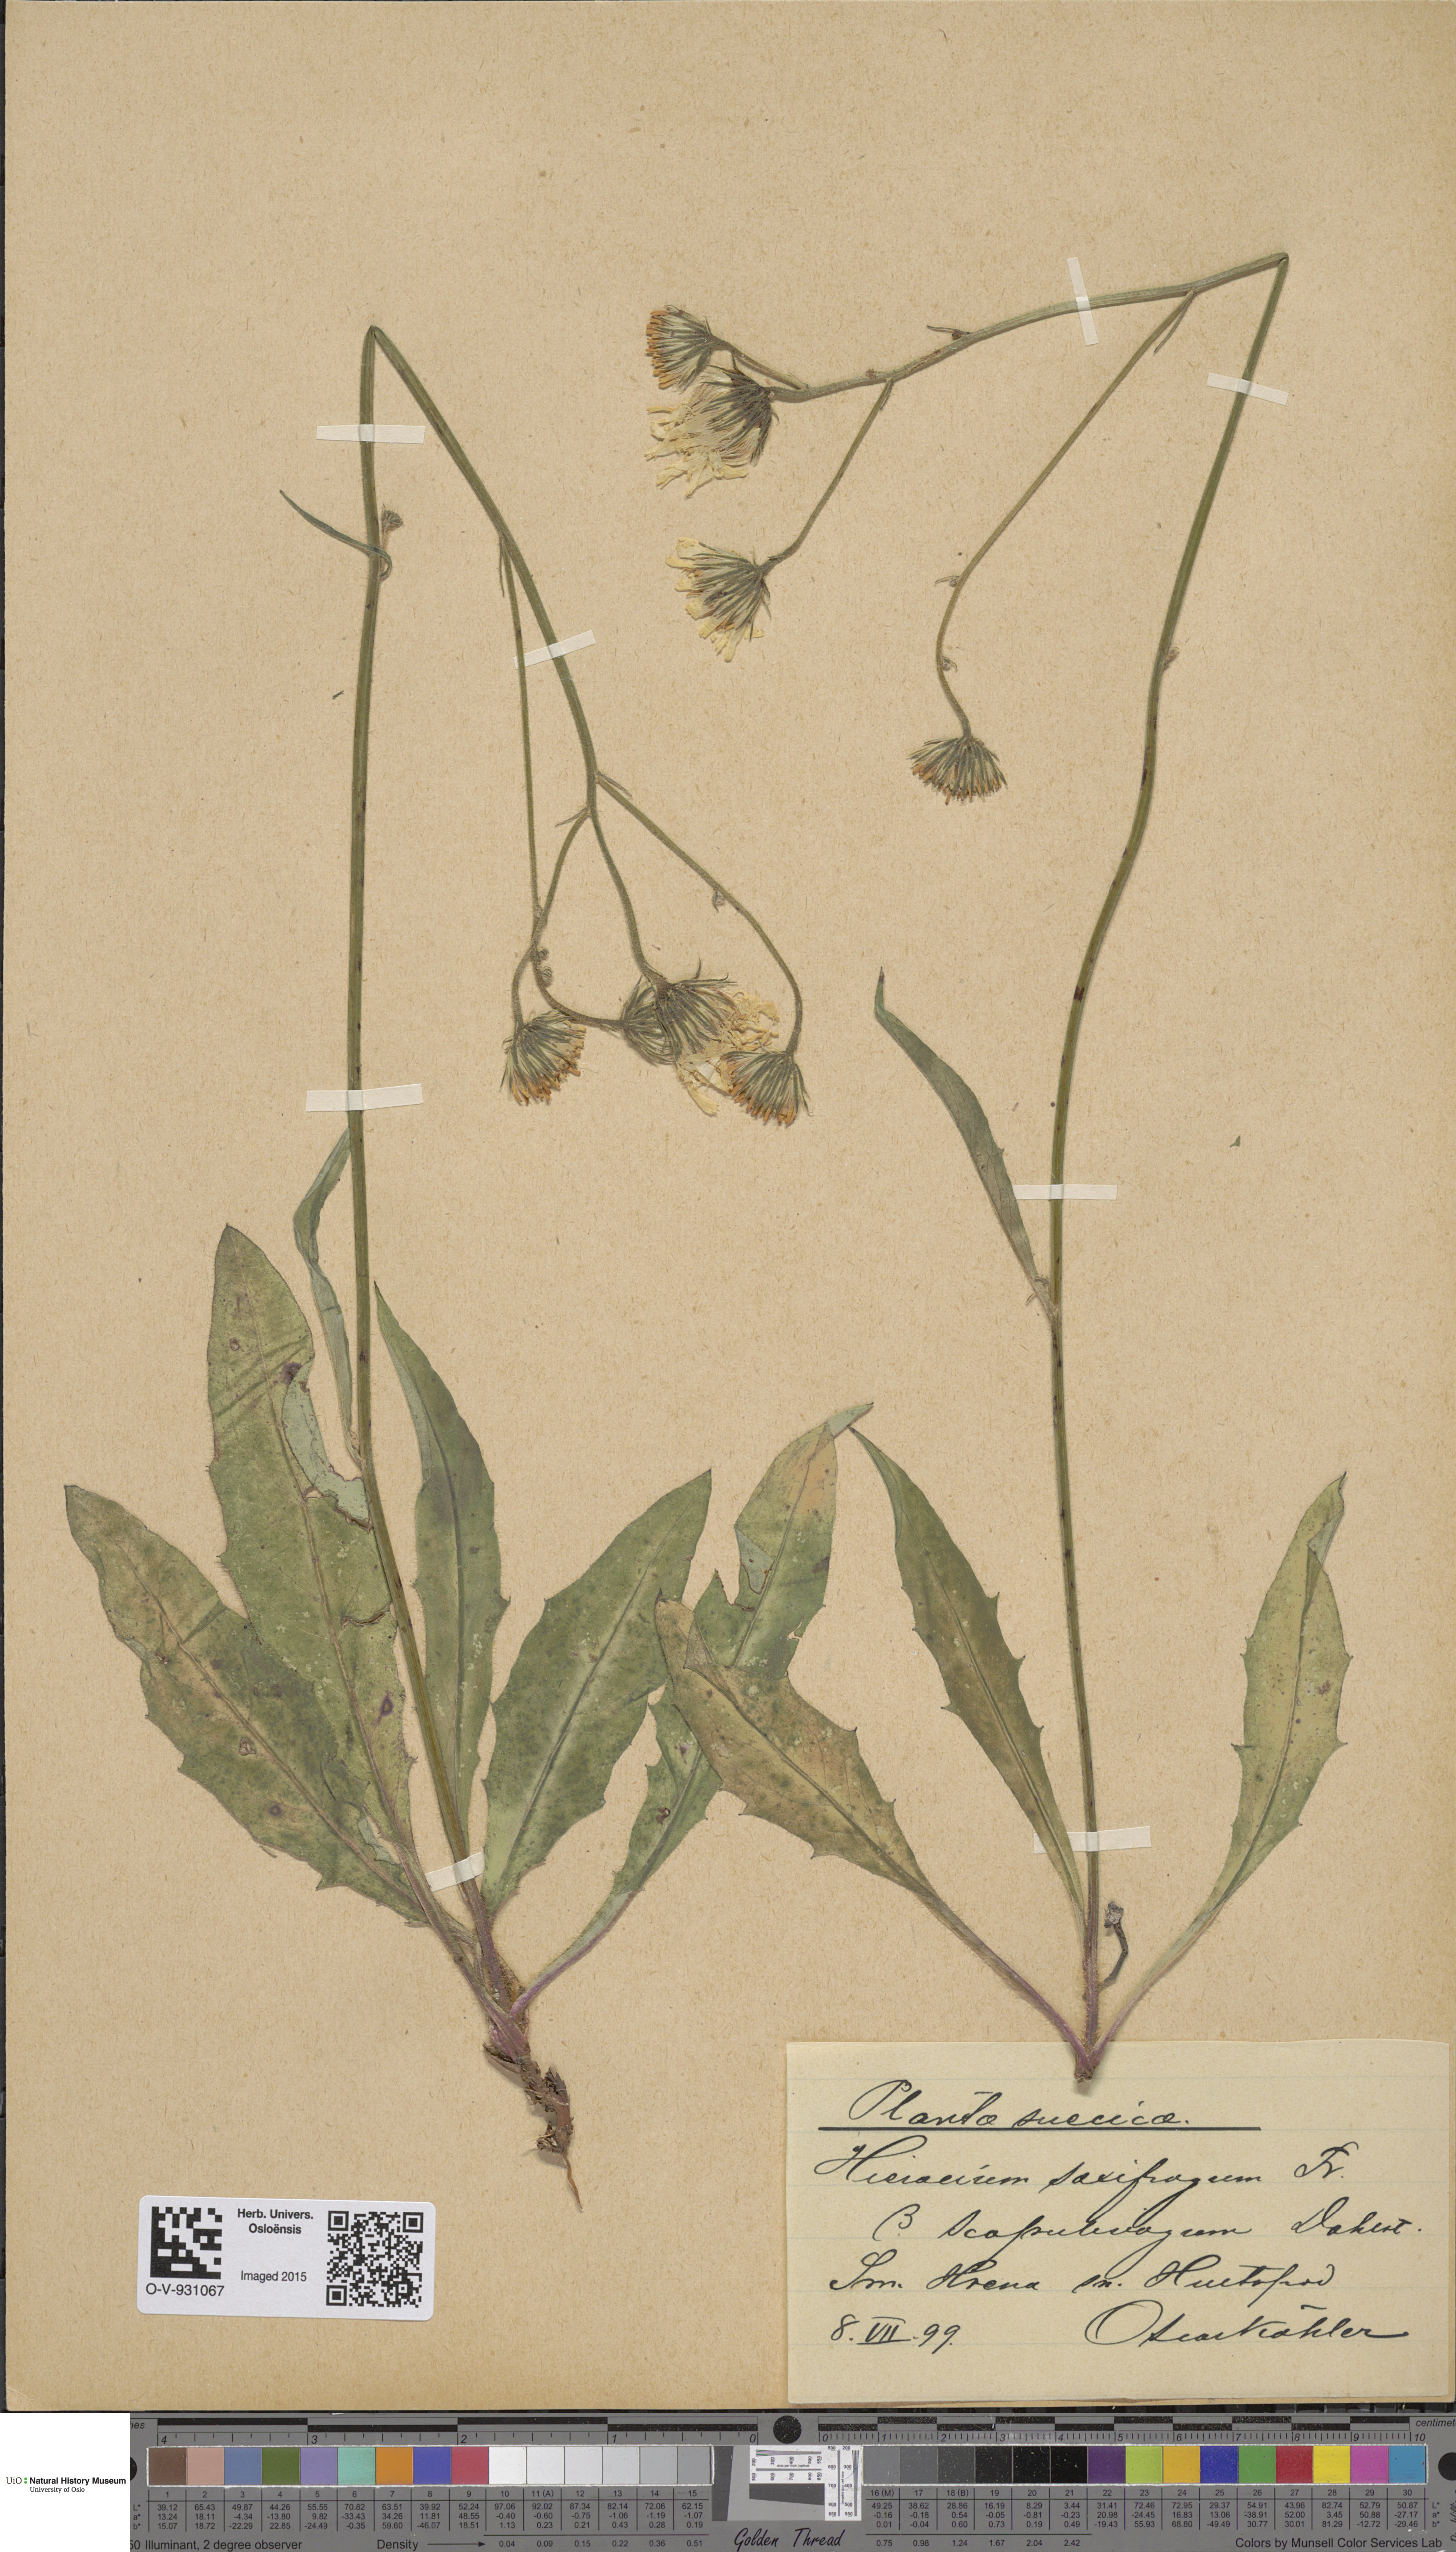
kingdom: Plantae
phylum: Tracheophyta
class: Magnoliopsida
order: Asterales
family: Asteraceae
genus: Hieracium
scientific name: Hieracium saxifragum
